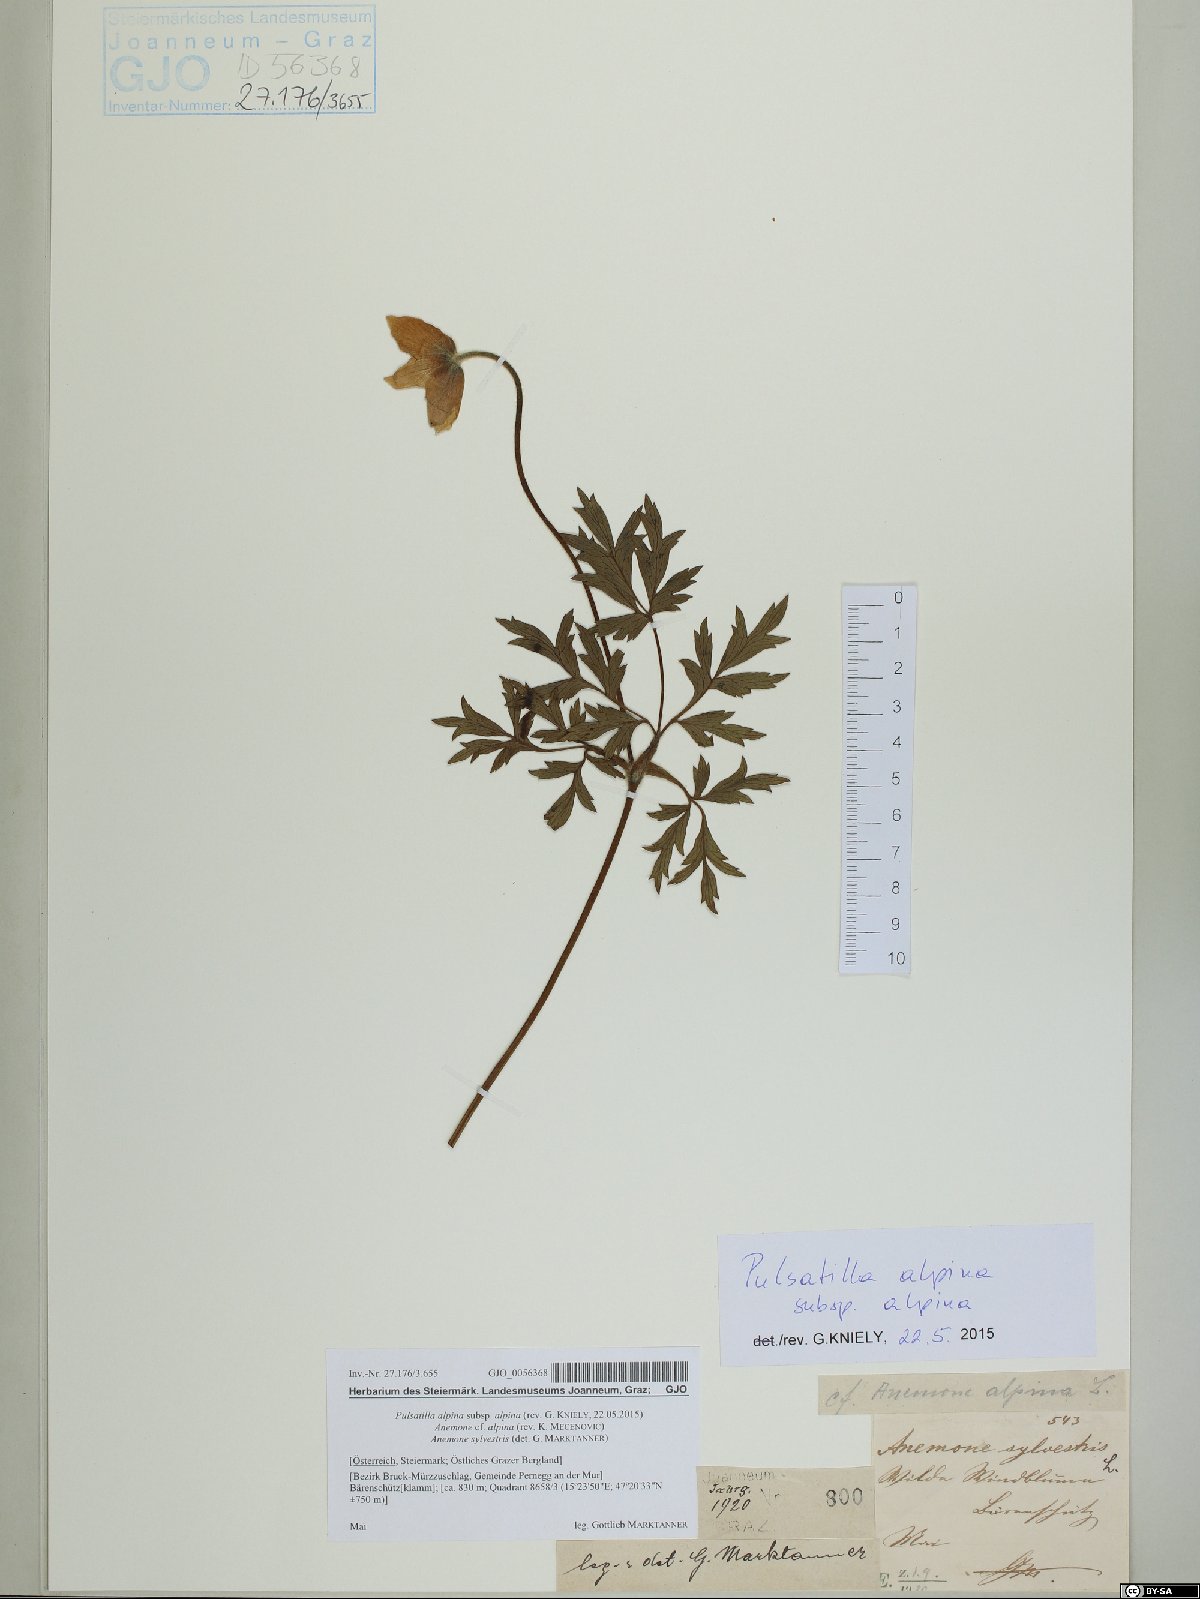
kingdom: Plantae
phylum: Tracheophyta
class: Magnoliopsida
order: Ranunculales
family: Ranunculaceae
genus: Pulsatilla
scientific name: Pulsatilla alpina
